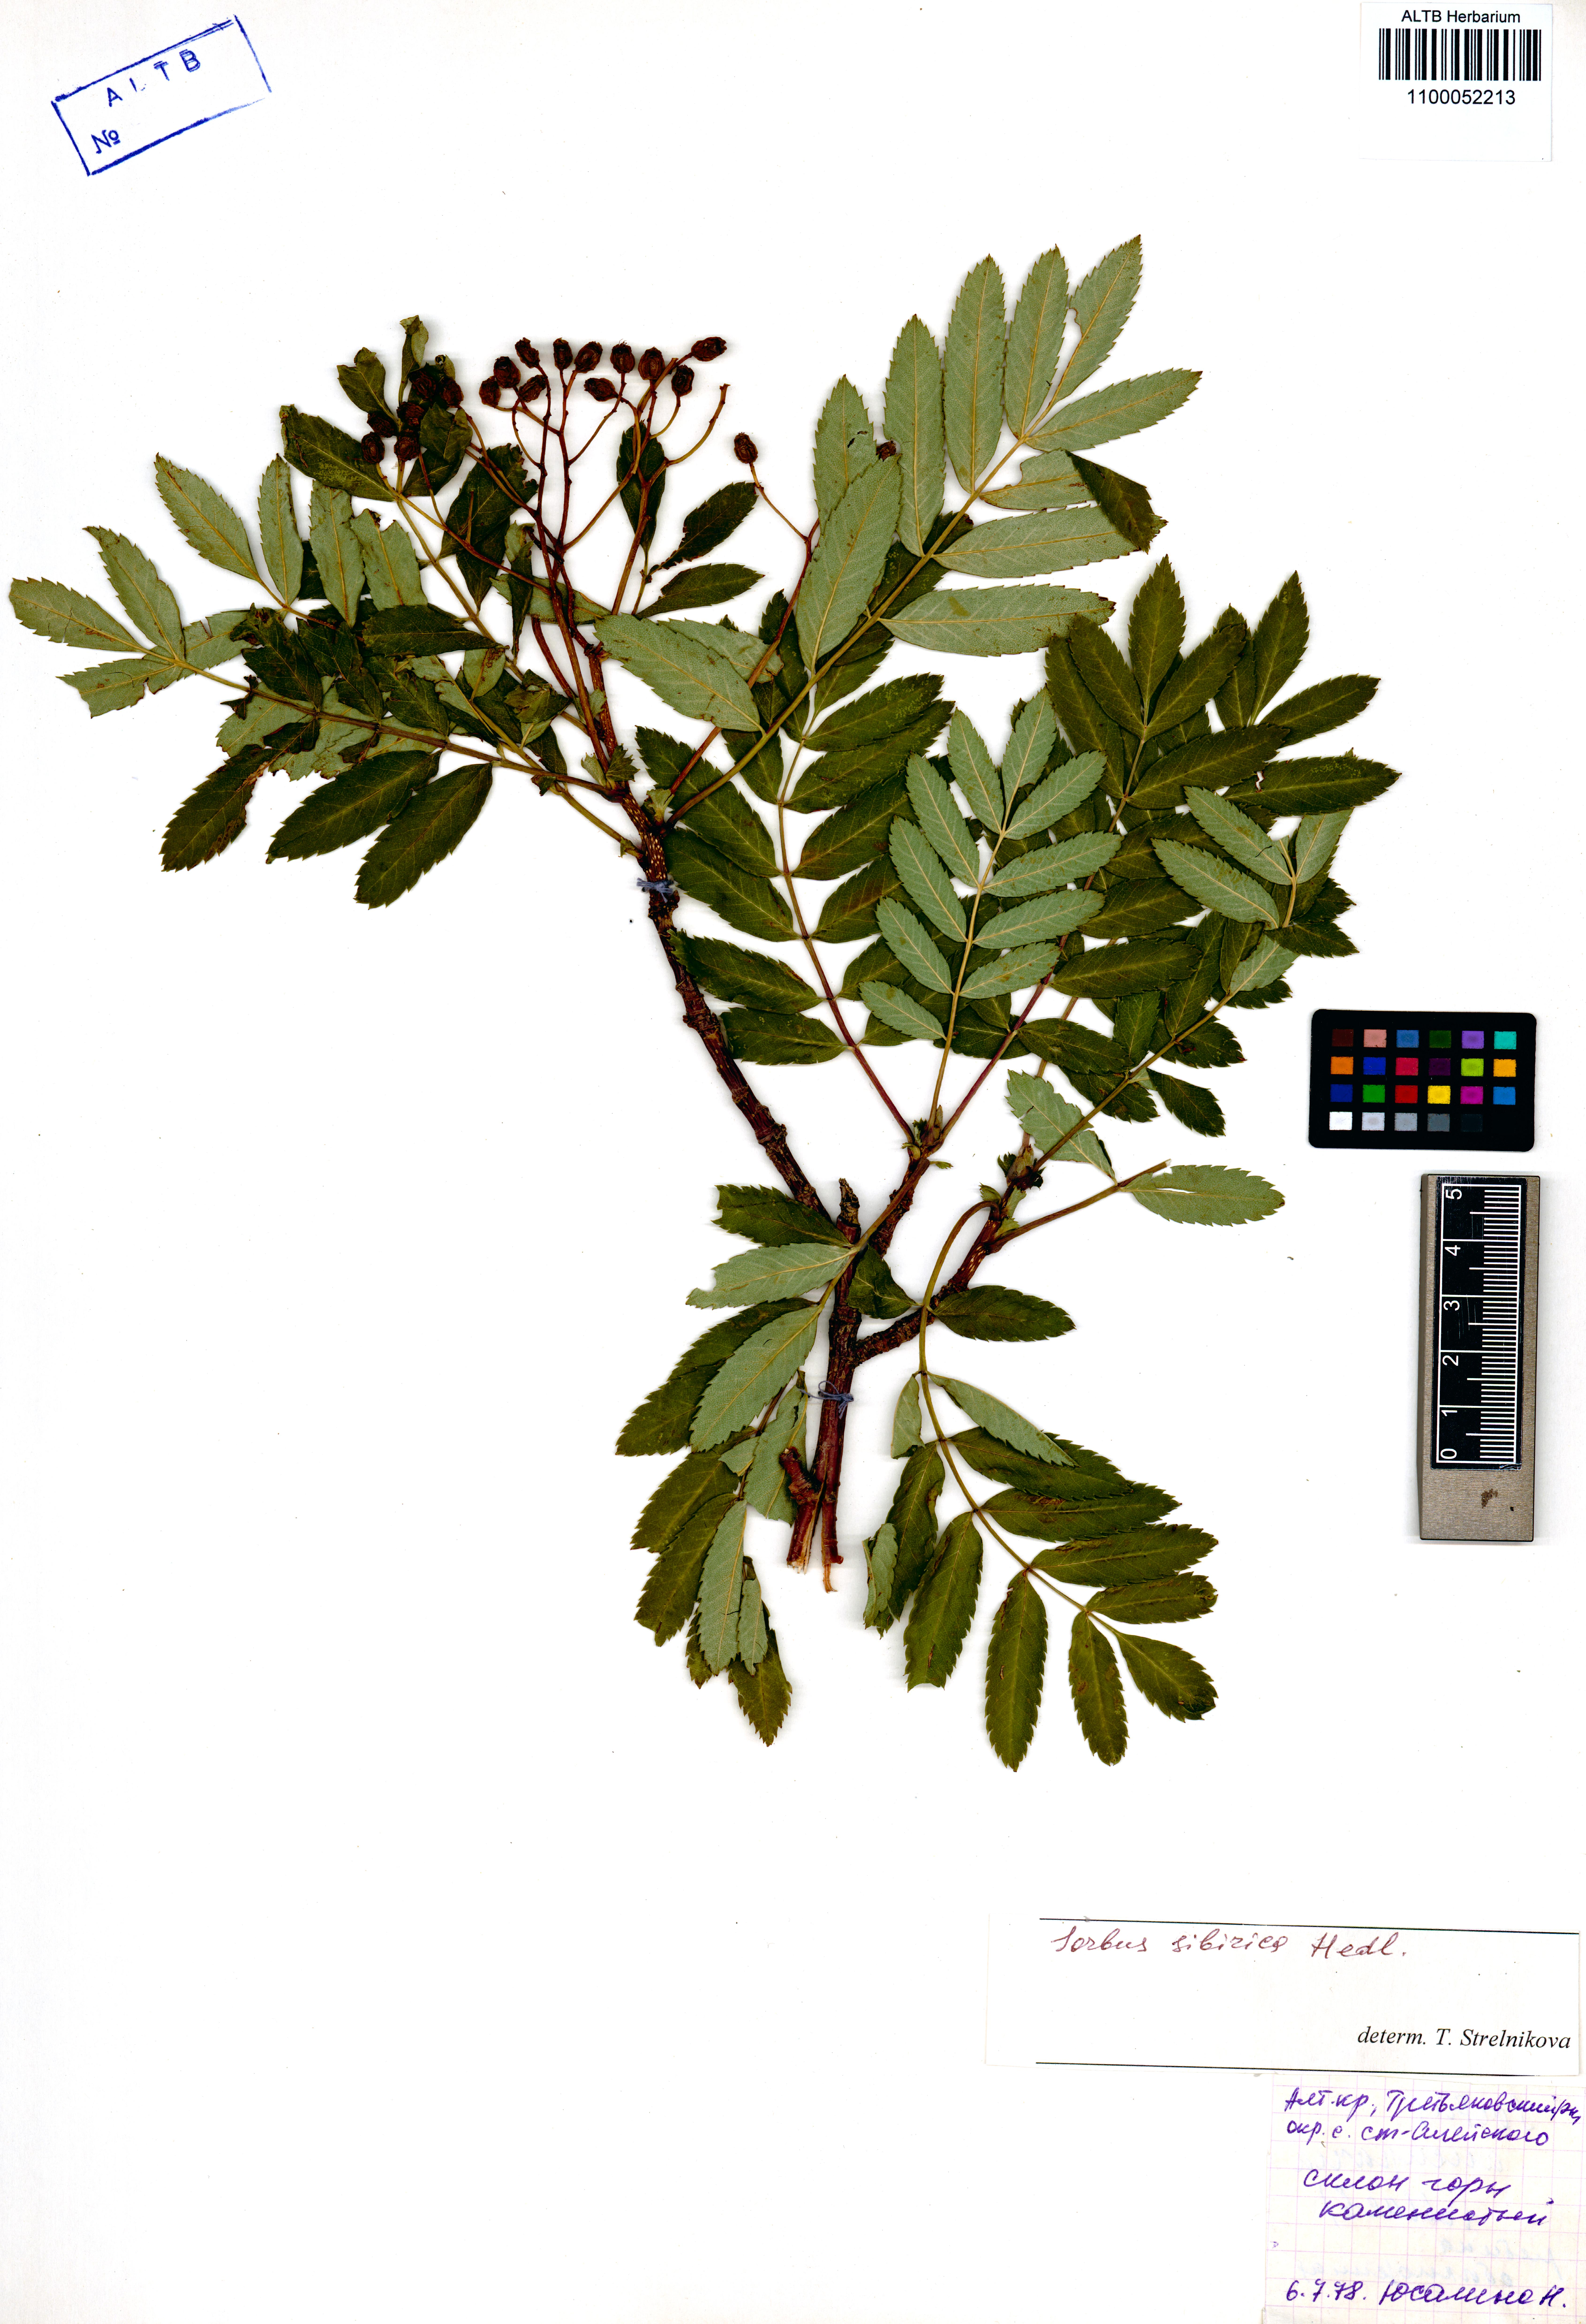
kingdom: Plantae
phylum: Tracheophyta
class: Magnoliopsida
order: Rosales
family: Rosaceae
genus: Sorbus
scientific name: Sorbus aucuparia
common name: Rowan
